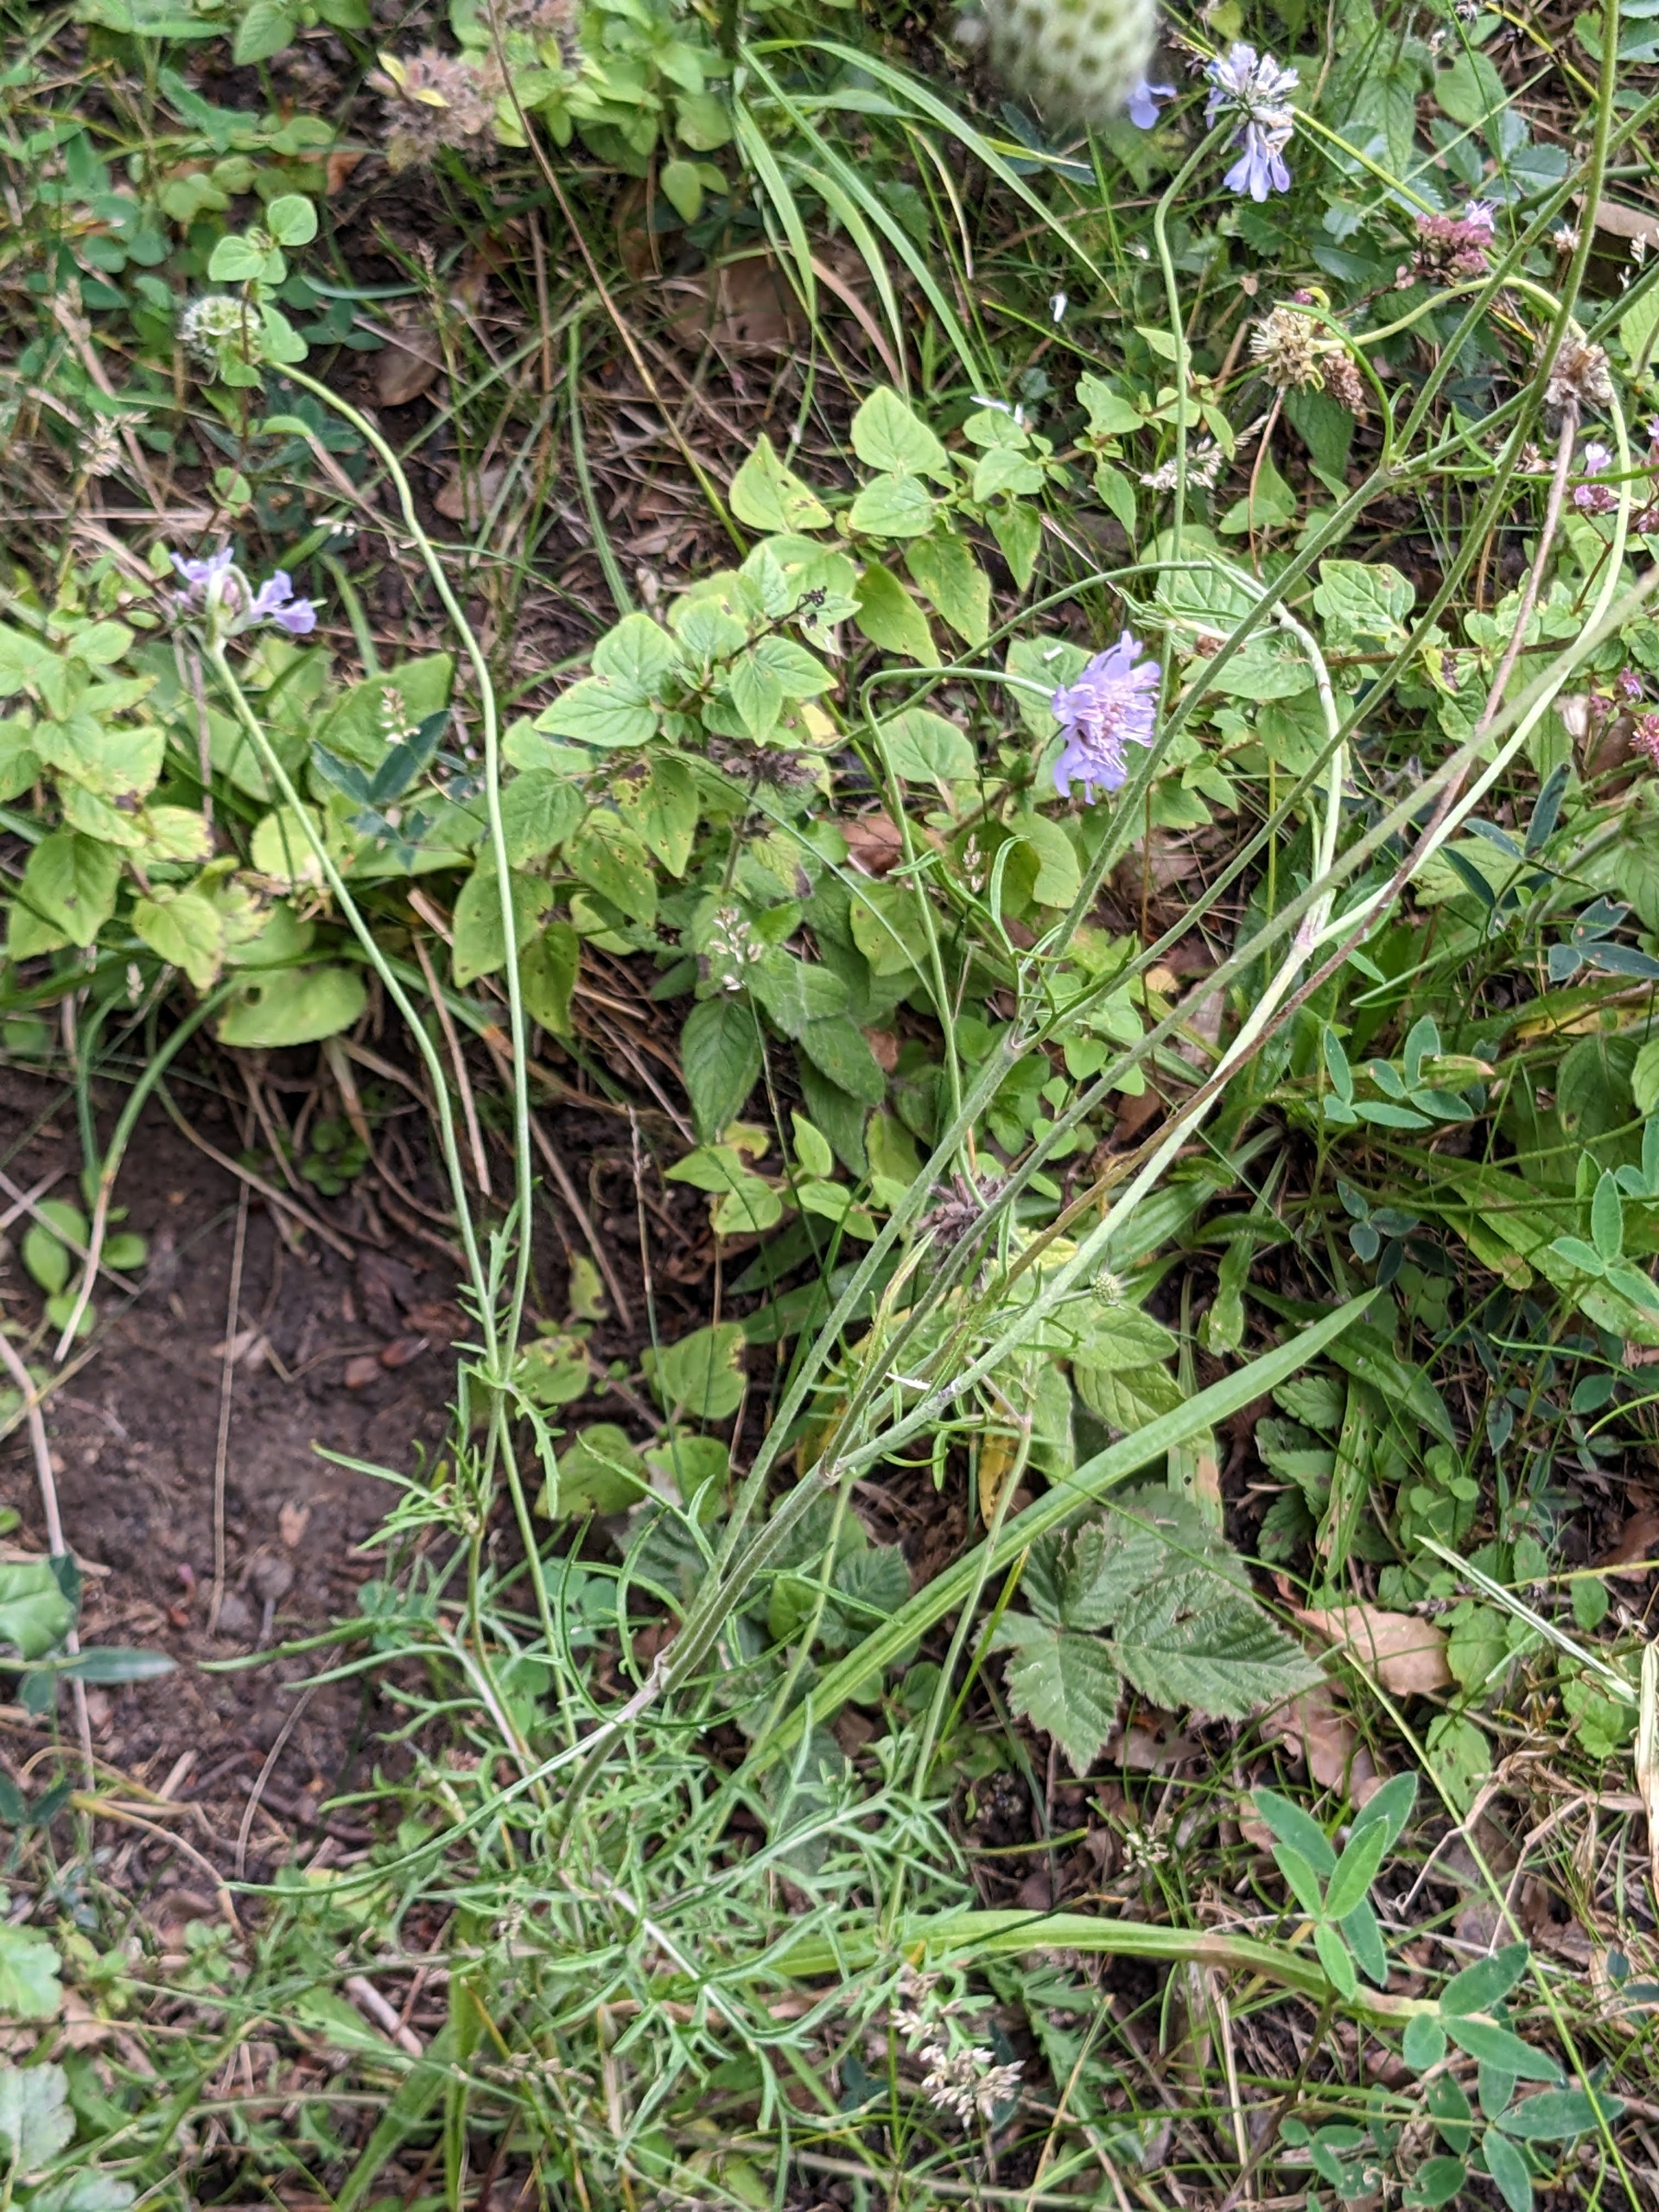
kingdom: Plantae
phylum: Tracheophyta
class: Magnoliopsida
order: Dipsacales
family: Caprifoliaceae
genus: Scabiosa
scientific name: Scabiosa columbaria
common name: Due-skabiose
